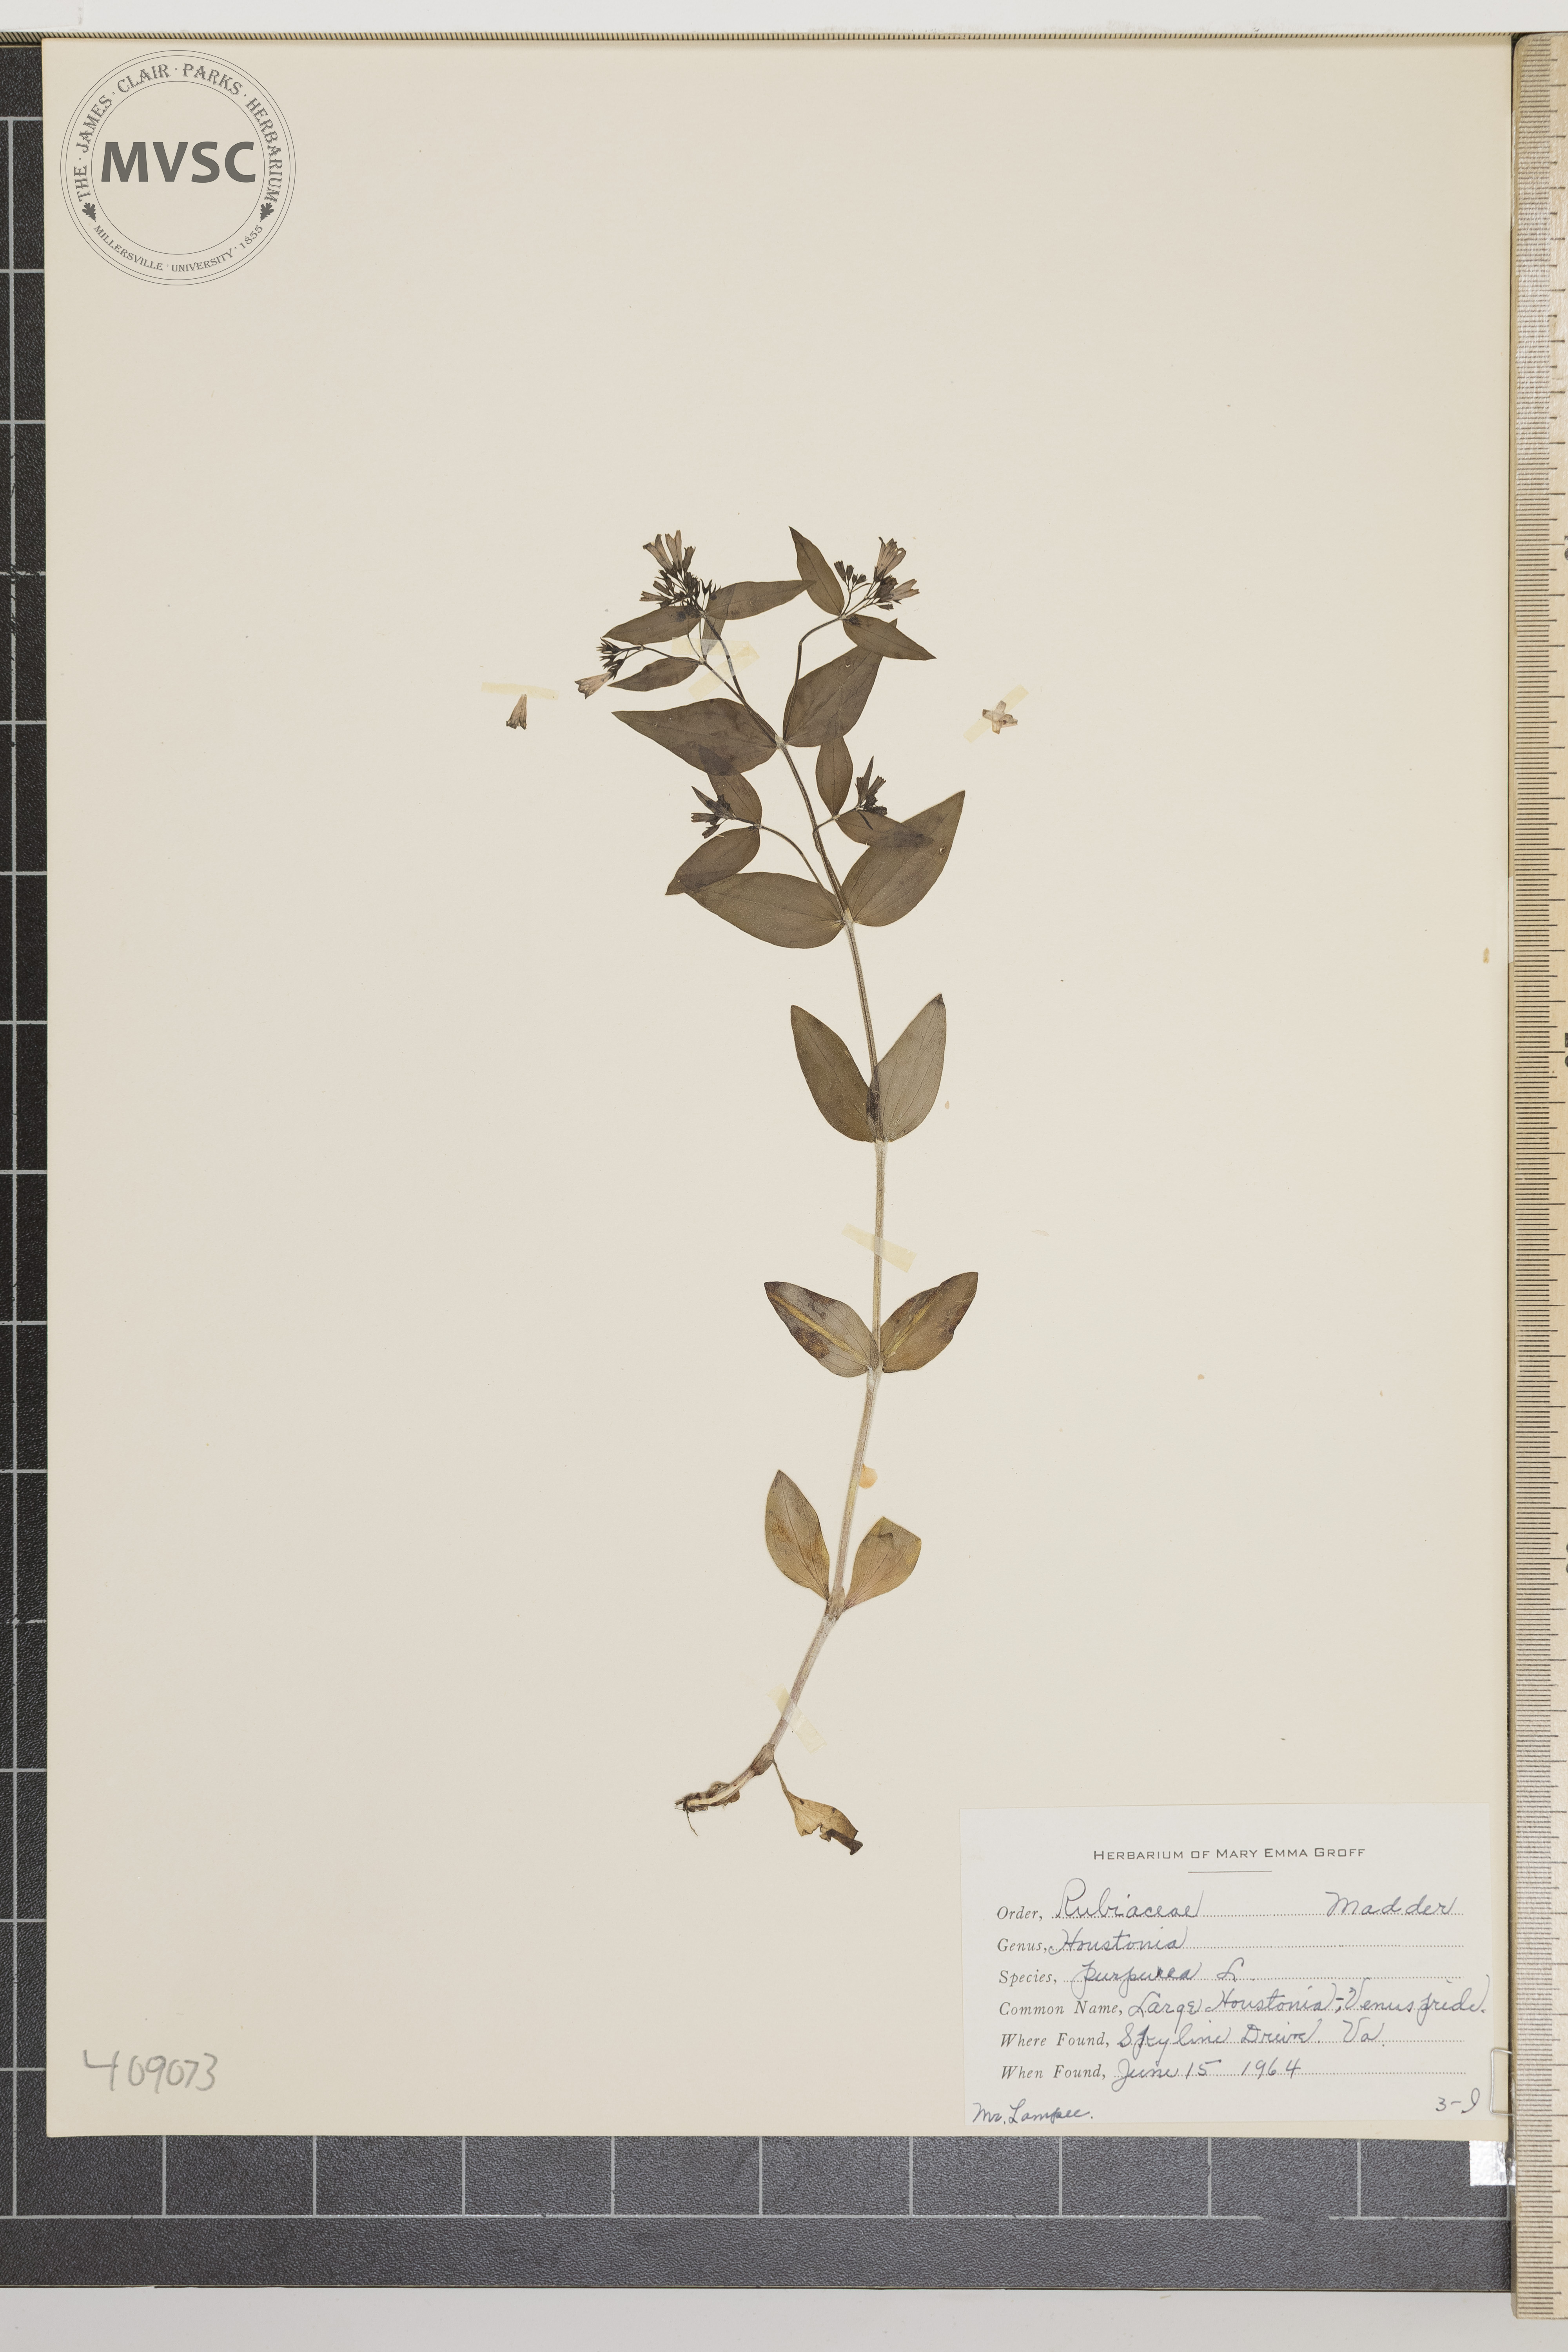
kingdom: Plantae
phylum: Tracheophyta
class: Magnoliopsida
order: Gentianales
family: Rubiaceae
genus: Houstonia
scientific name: Houstonia purpurea
